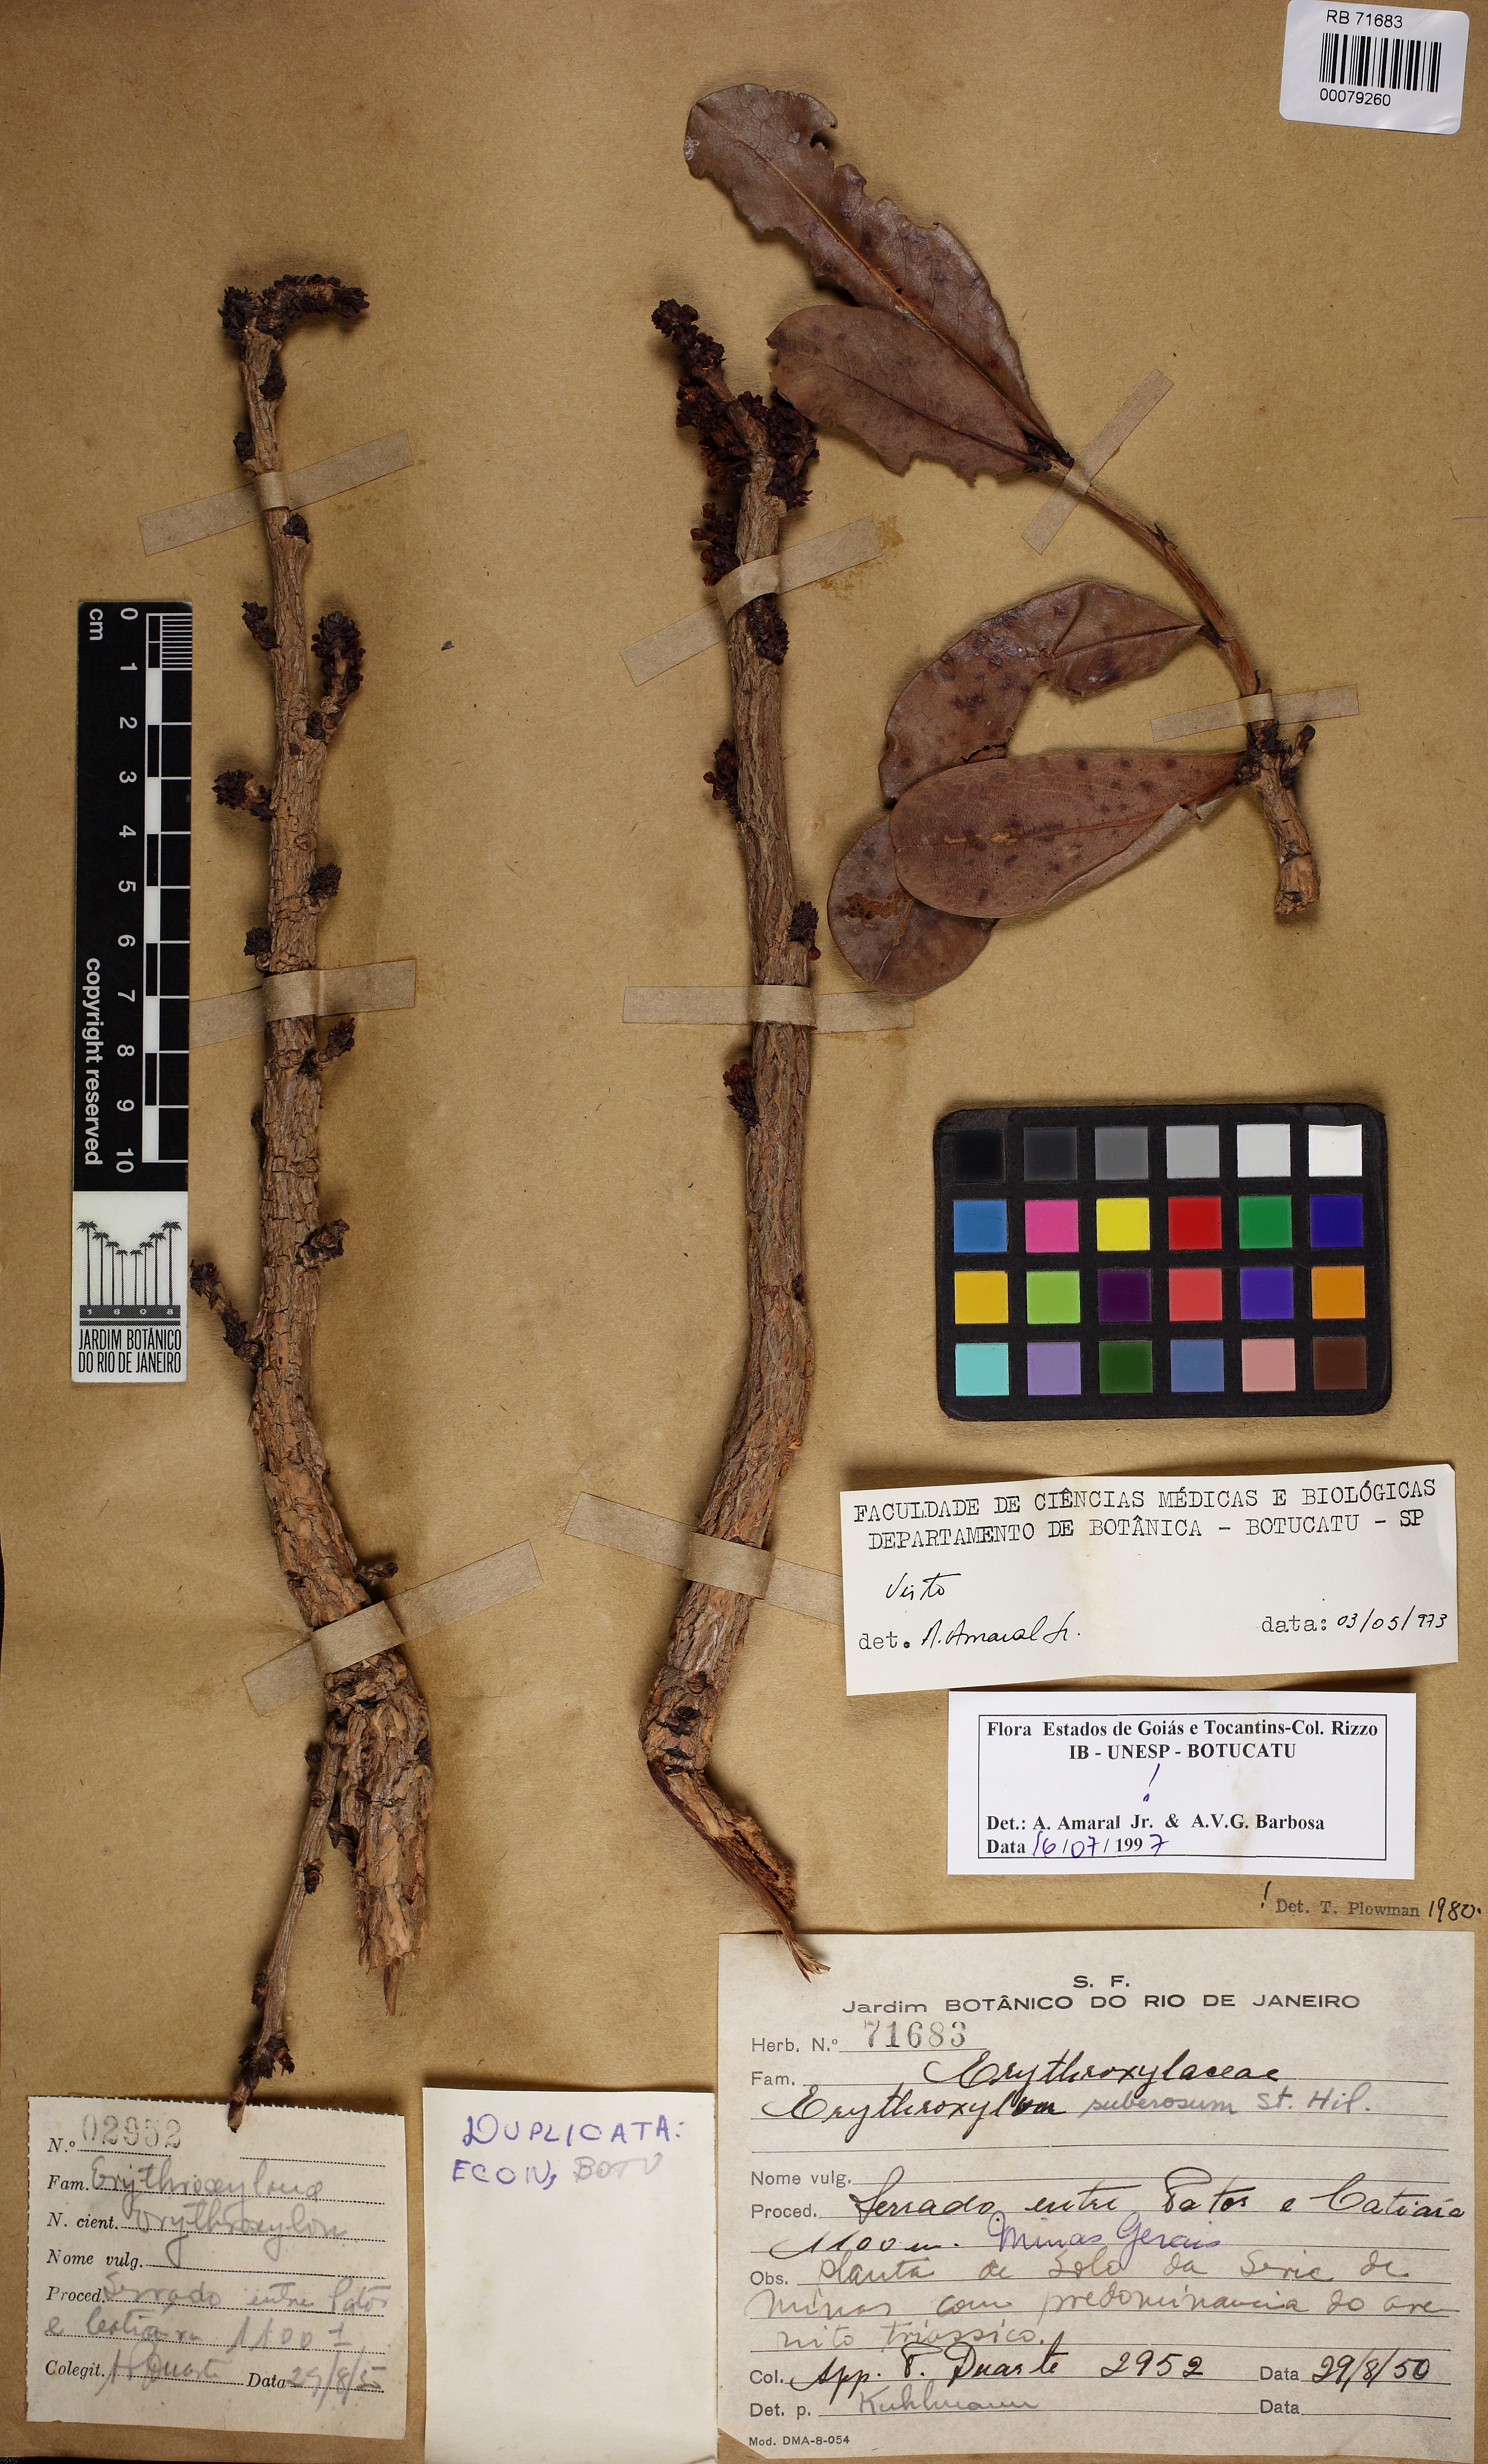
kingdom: Plantae
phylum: Tracheophyta
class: Magnoliopsida
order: Malpighiales
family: Erythroxylaceae
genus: Erythroxylum
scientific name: Erythroxylum suberosum
